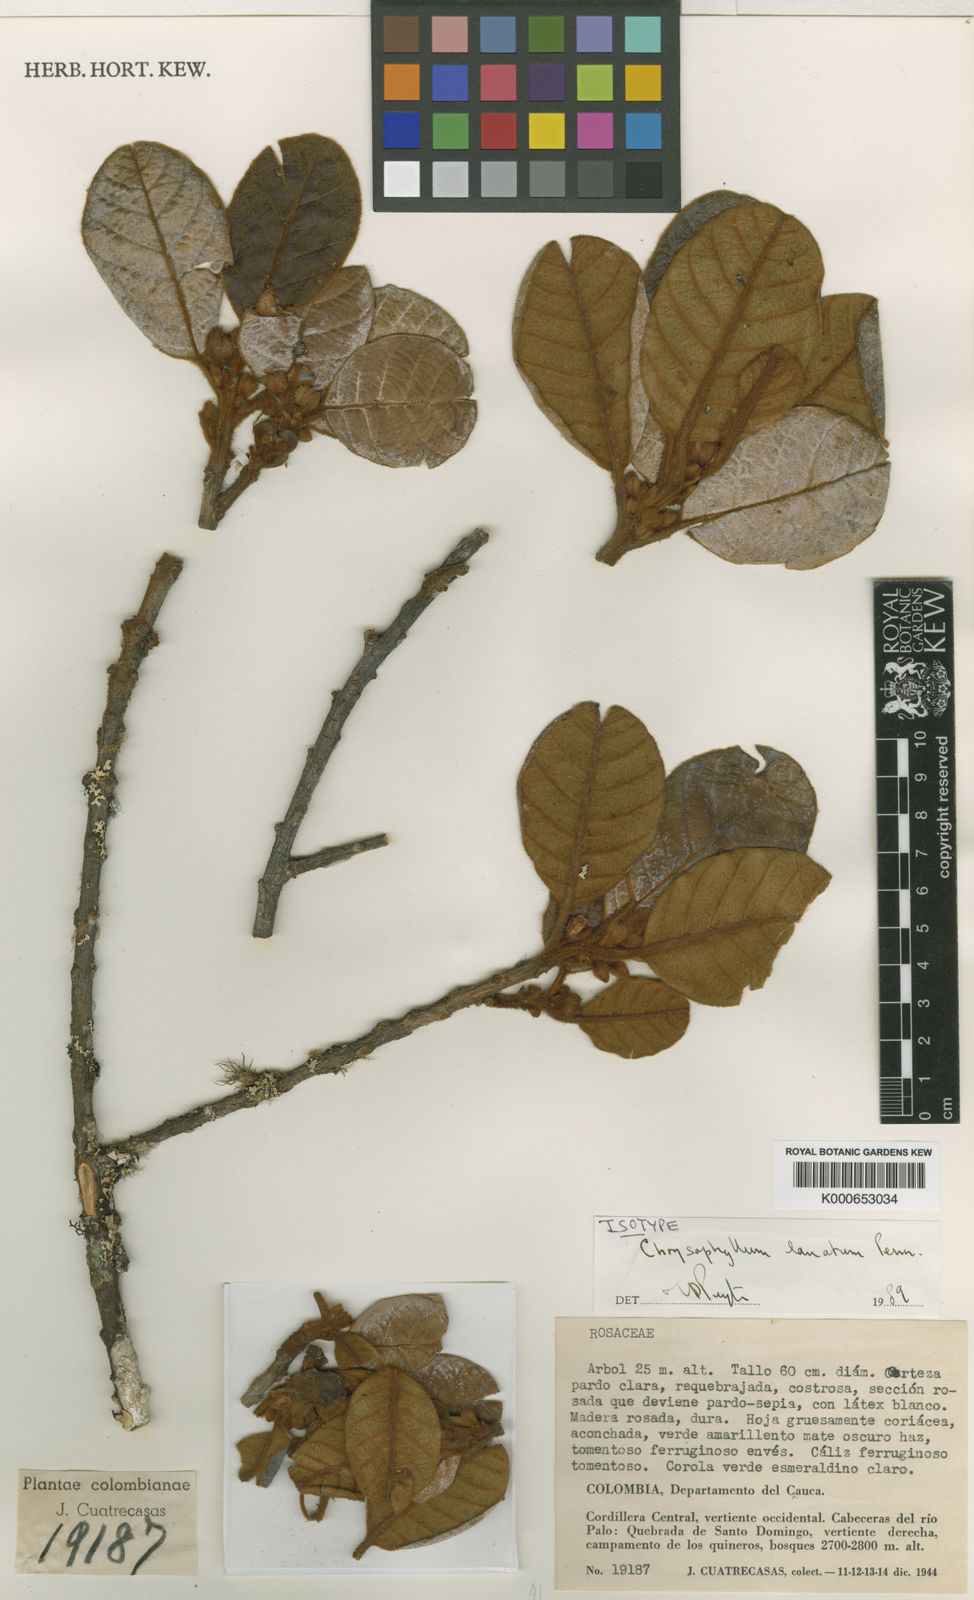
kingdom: Plantae
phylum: Tracheophyta
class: Magnoliopsida
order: Ericales
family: Sapotaceae
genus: Chrysophyllum
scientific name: Chrysophyllum lanatum
